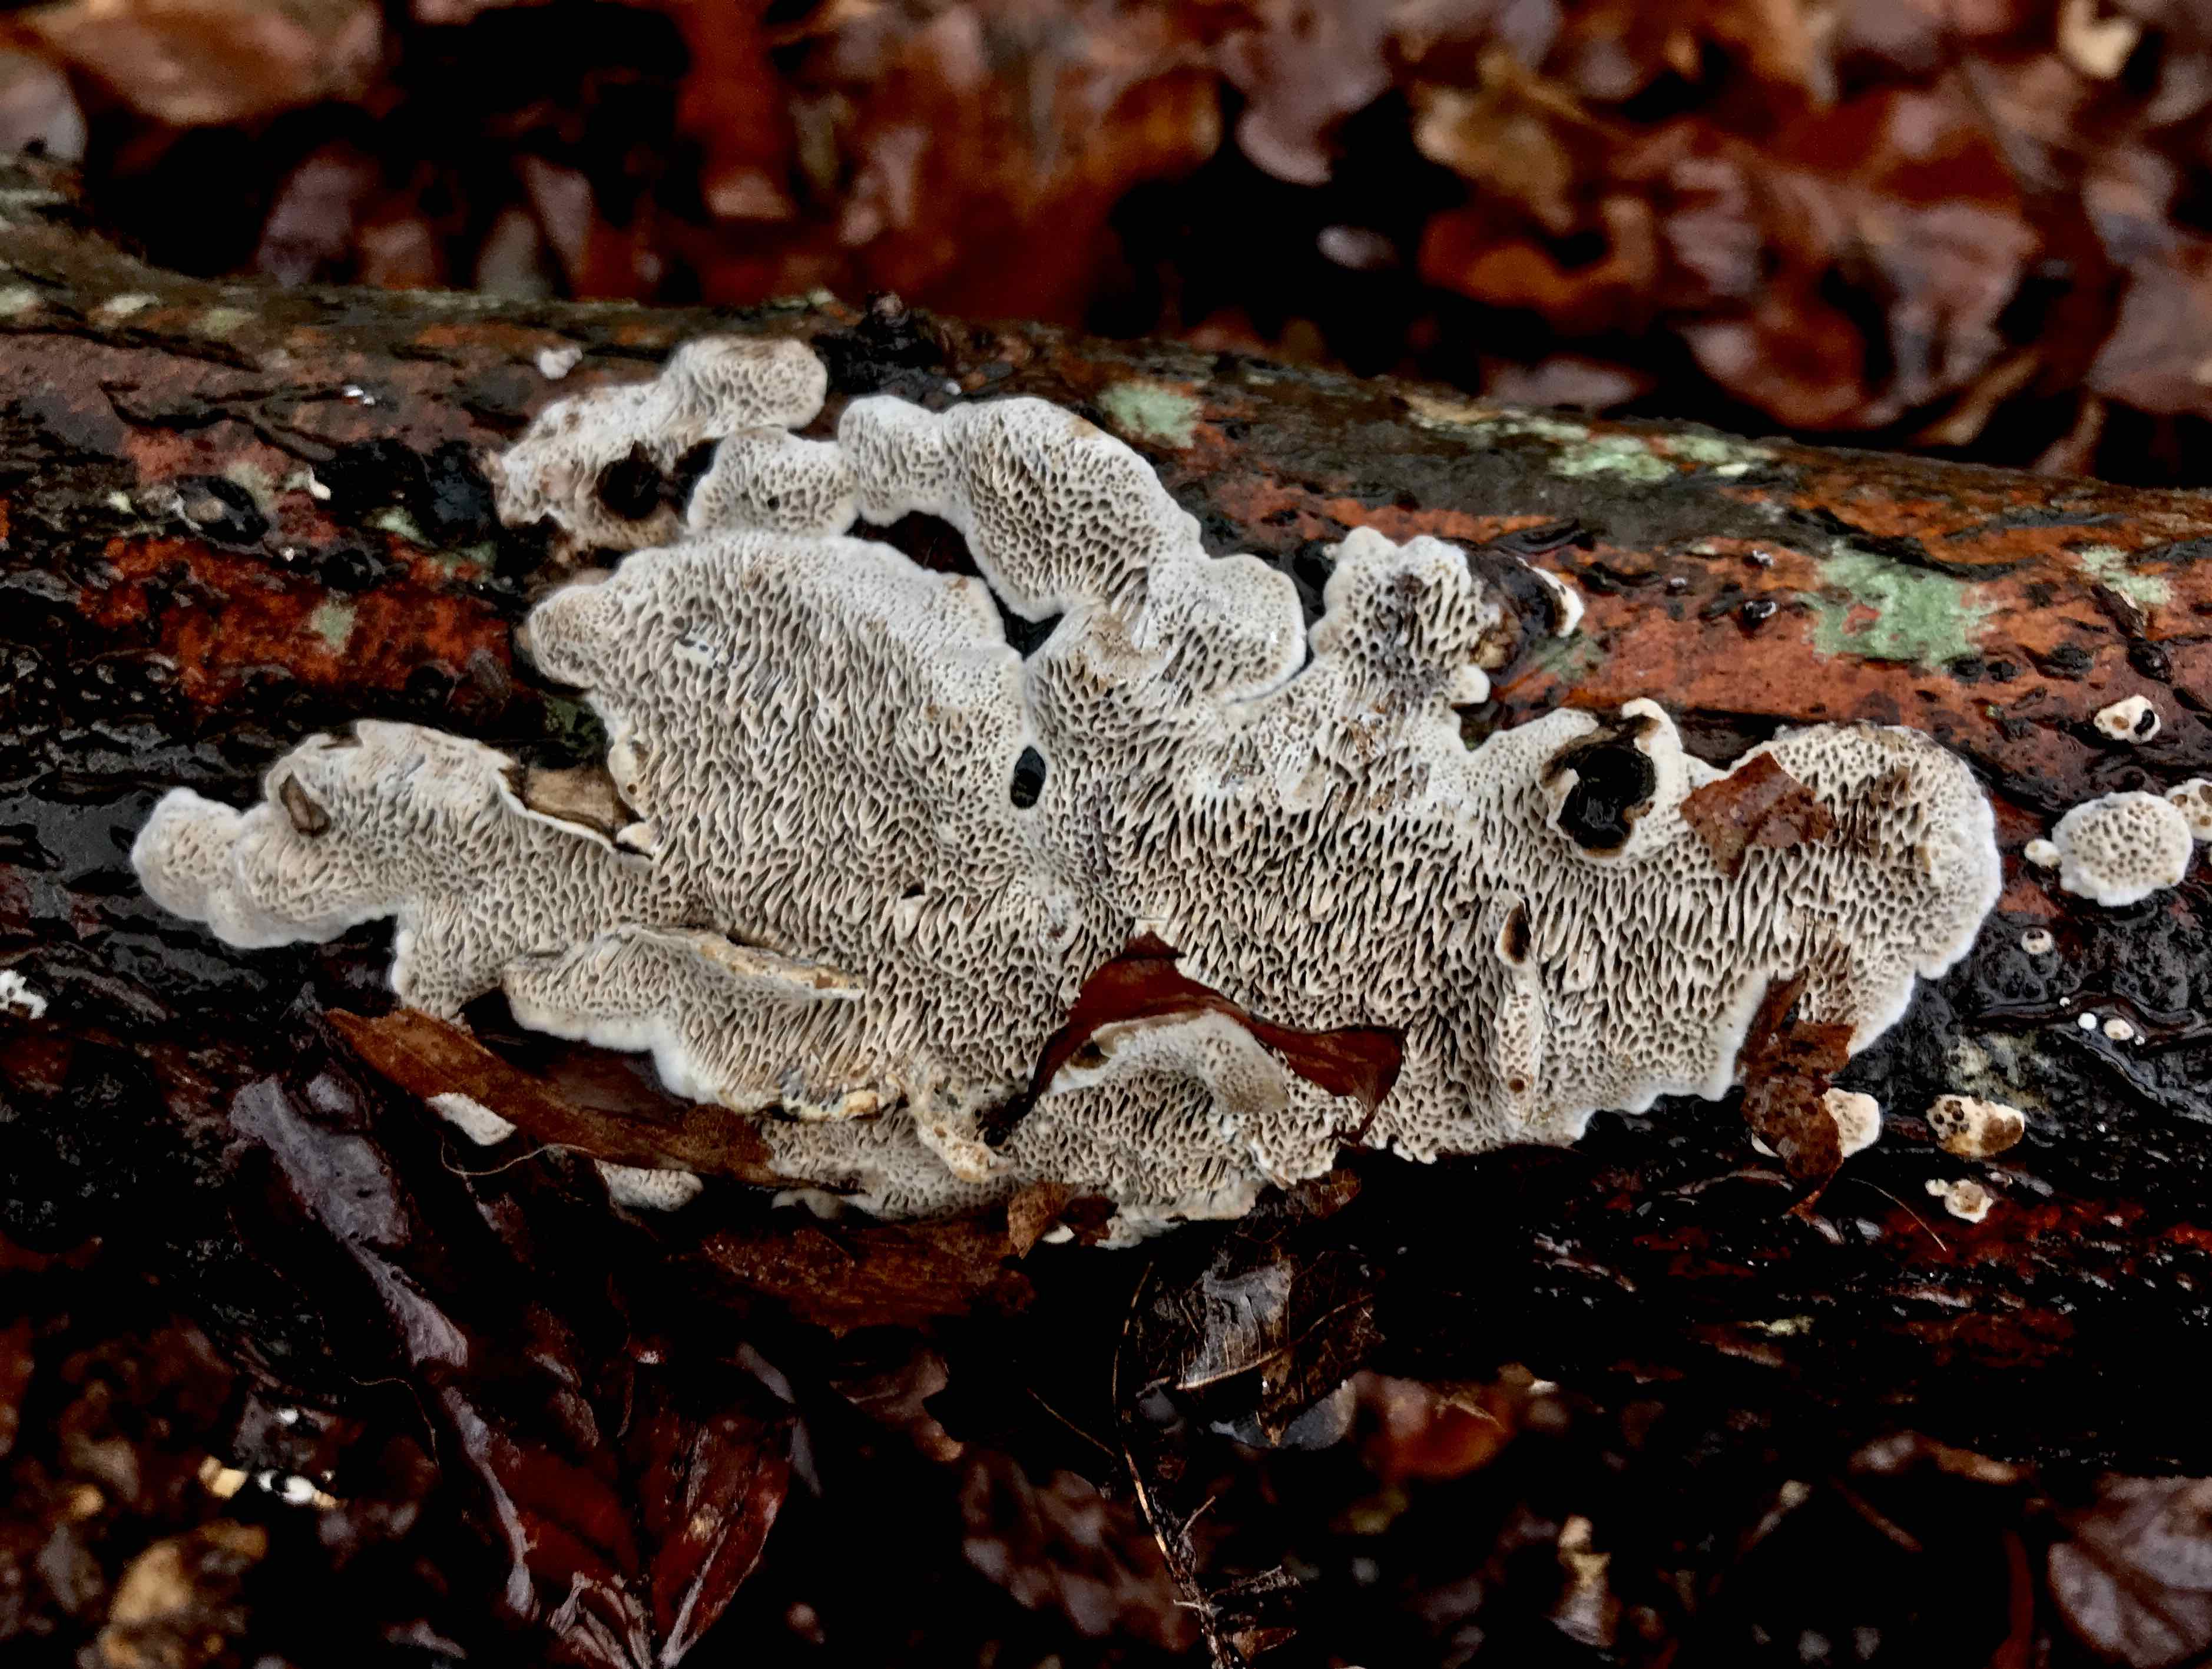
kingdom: Fungi
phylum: Basidiomycota
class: Agaricomycetes
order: Polyporales
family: Polyporaceae
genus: Podofomes
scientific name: Podofomes mollis
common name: blød begporesvamp
